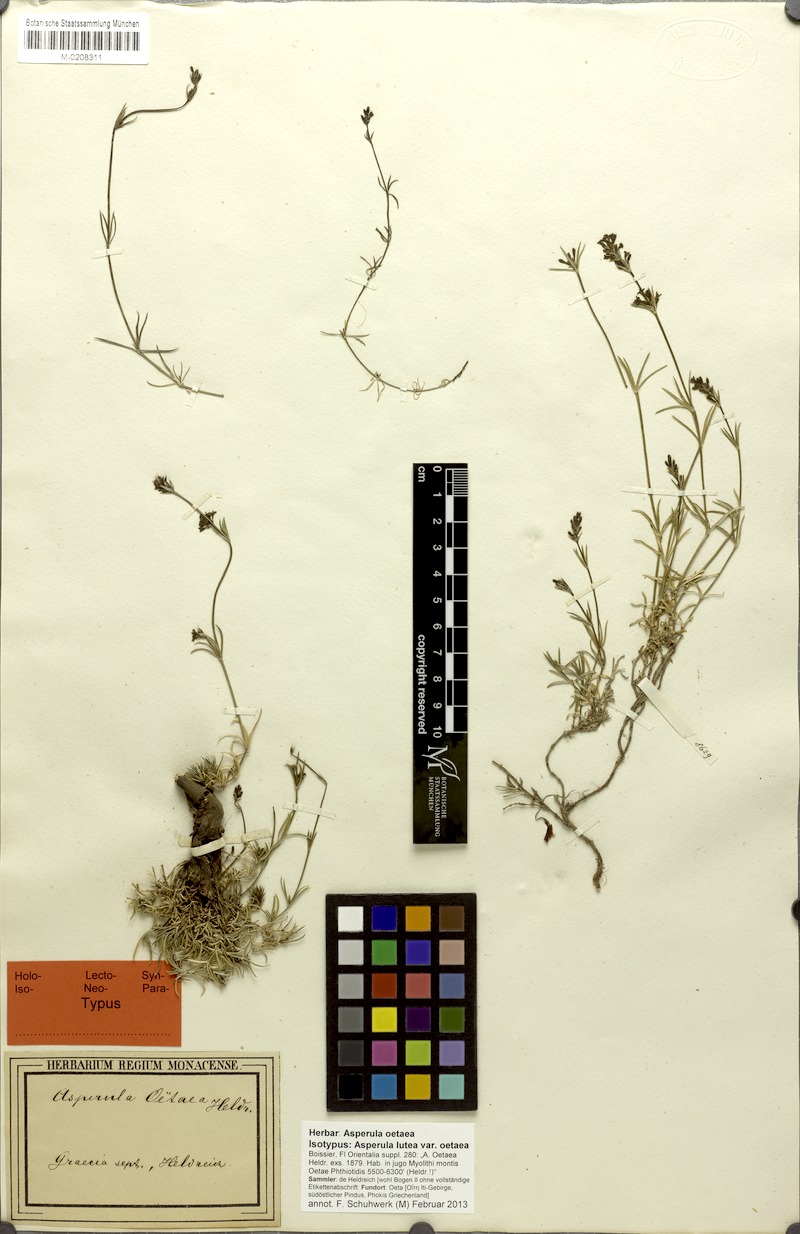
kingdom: Plantae
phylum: Tracheophyta
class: Magnoliopsida
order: Gentianales
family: Rubiaceae
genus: Cynanchica
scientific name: Cynanchica oetaea
